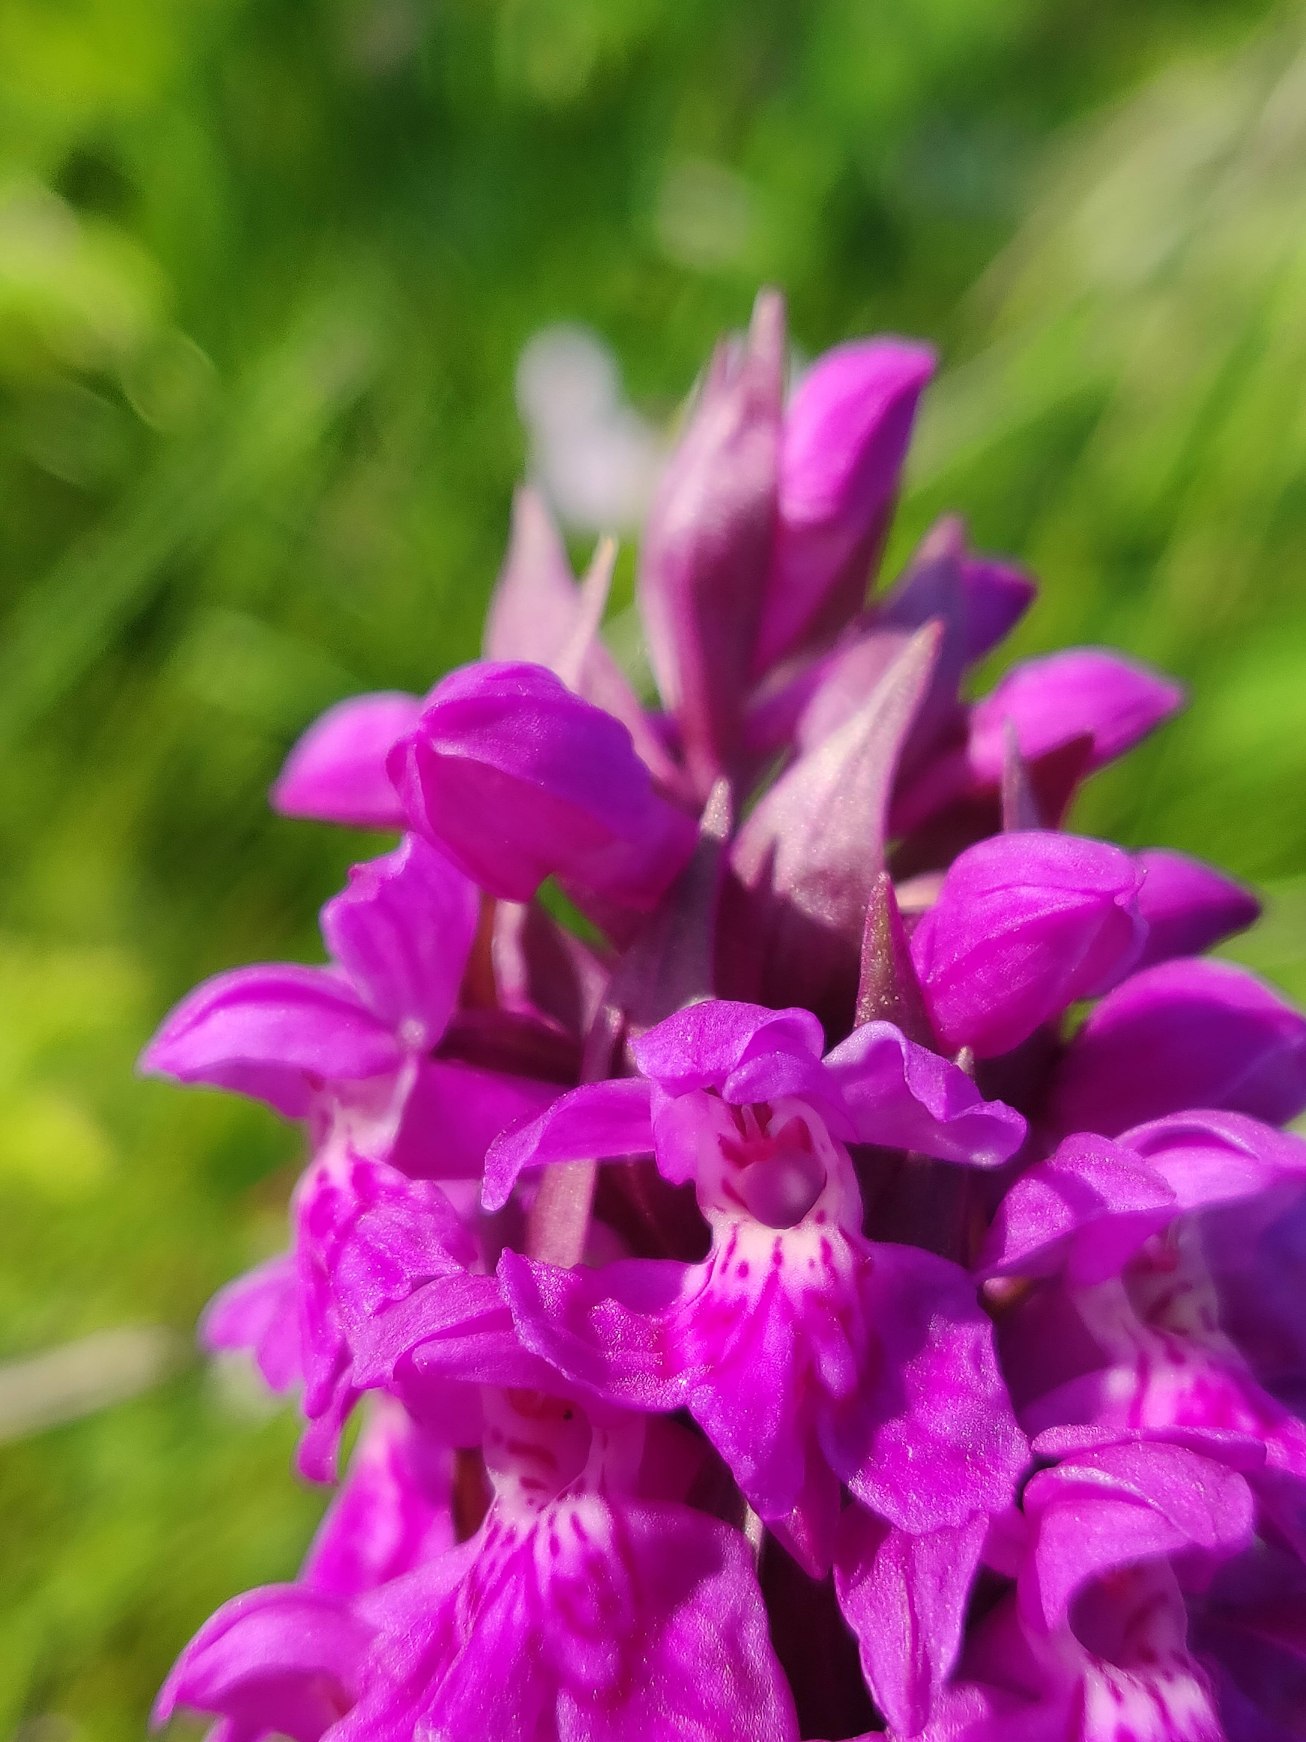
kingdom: Plantae
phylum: Tracheophyta
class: Liliopsida
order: Asparagales
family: Orchidaceae
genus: Dactylorhiza
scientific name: Dactylorhiza majalis
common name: Maj-gøgeurt
